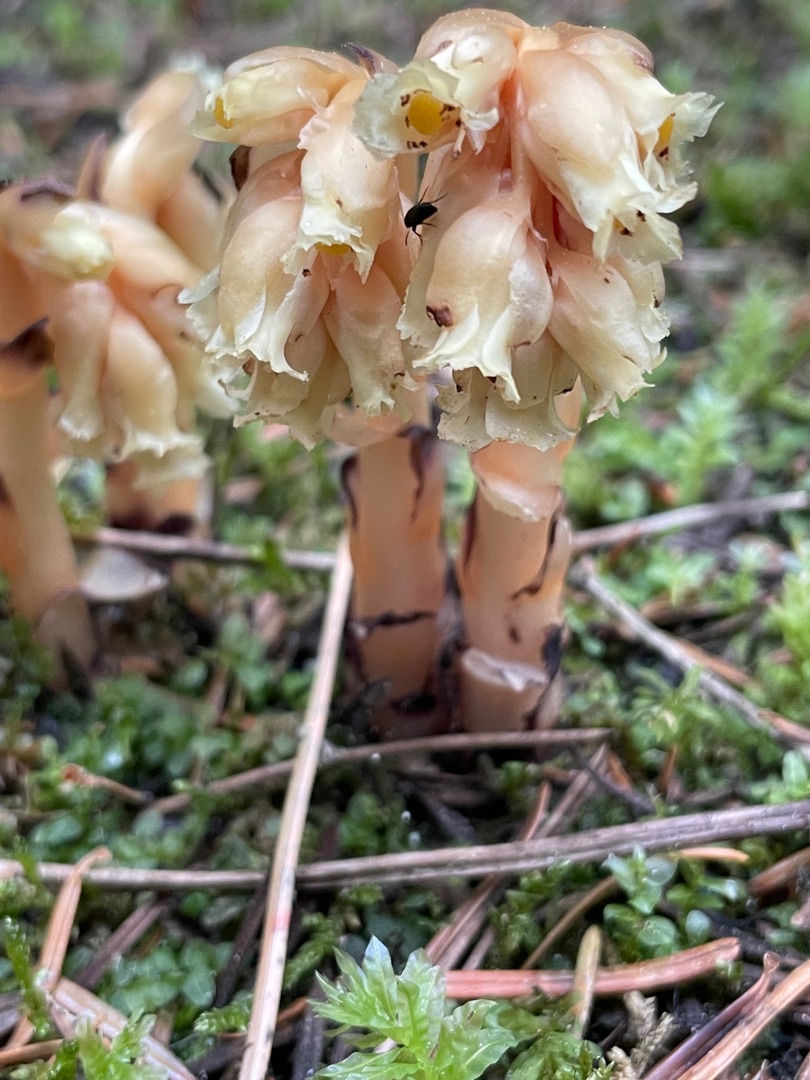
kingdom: Plantae
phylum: Tracheophyta
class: Magnoliopsida
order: Ericales
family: Ericaceae
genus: Hypopitys
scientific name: Hypopitys monotropa
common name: Snylterod
